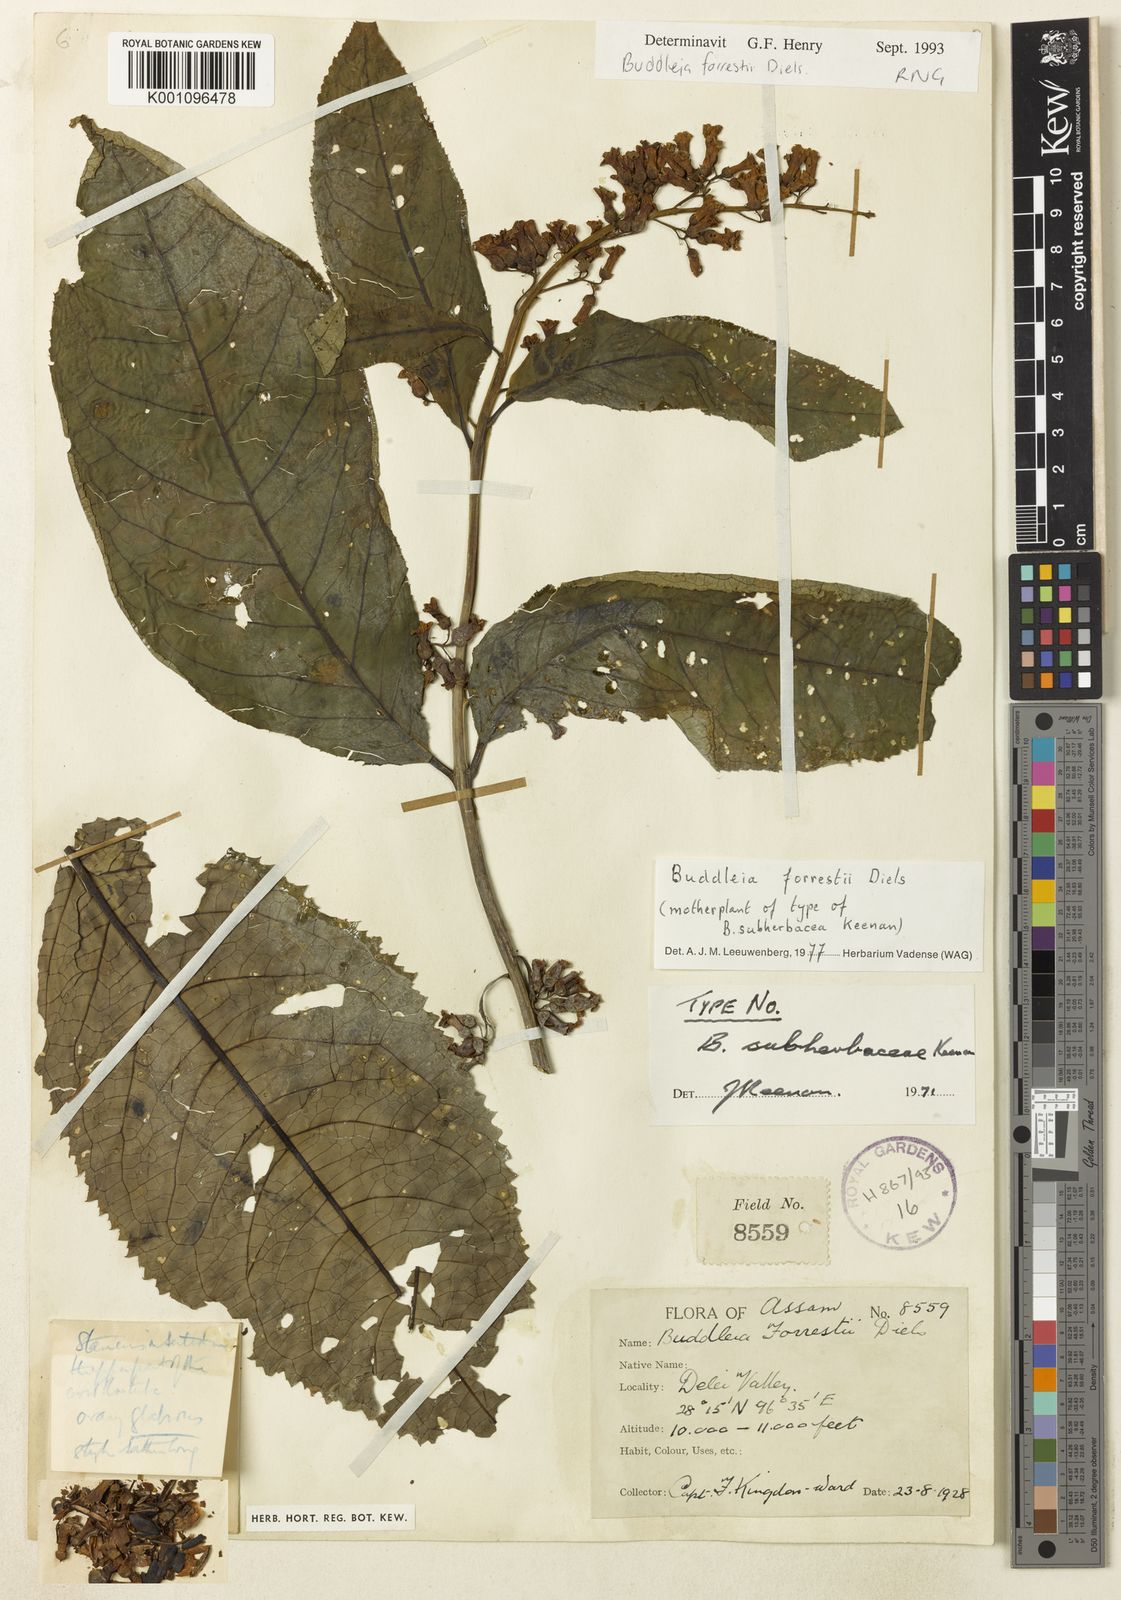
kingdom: Plantae
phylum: Tracheophyta
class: Magnoliopsida
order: Lamiales
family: Scrophulariaceae
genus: Buddleja
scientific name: Buddleja forrestii
